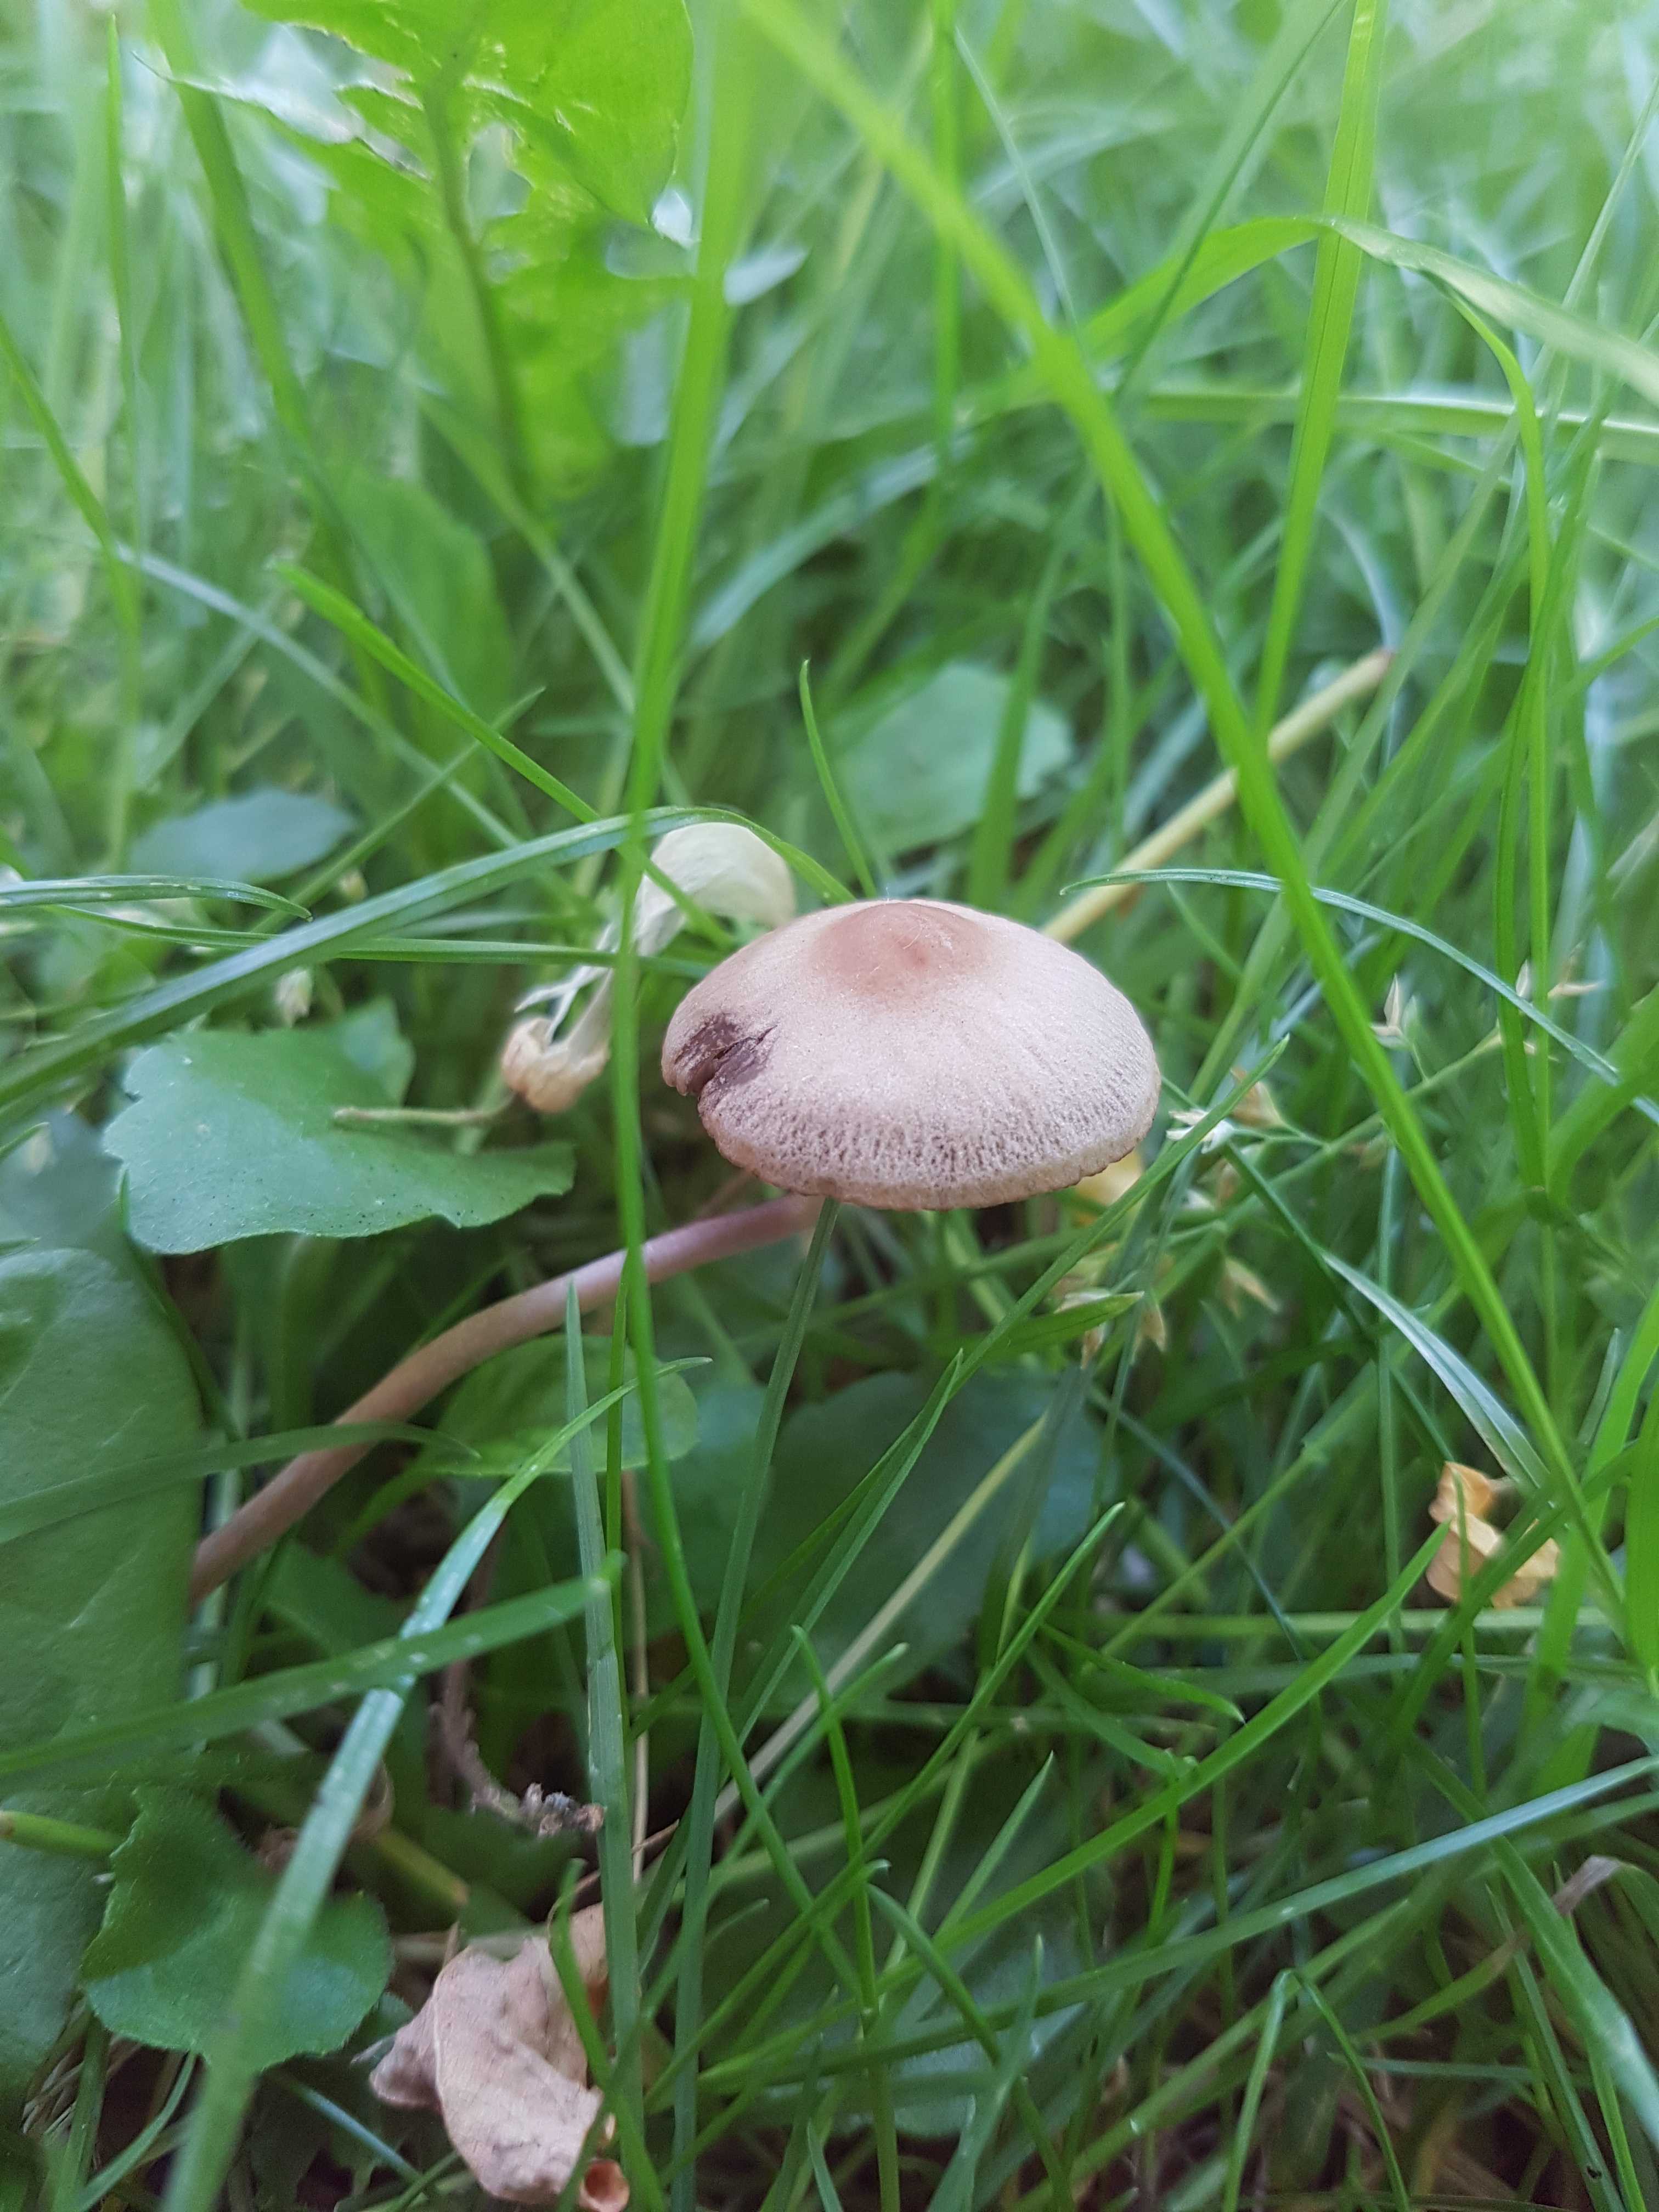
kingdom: Fungi
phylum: Basidiomycota
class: Agaricomycetes
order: Agaricales
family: Bolbitiaceae
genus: Panaeolina
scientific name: Panaeolina foenisecii
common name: høslætsvamp
